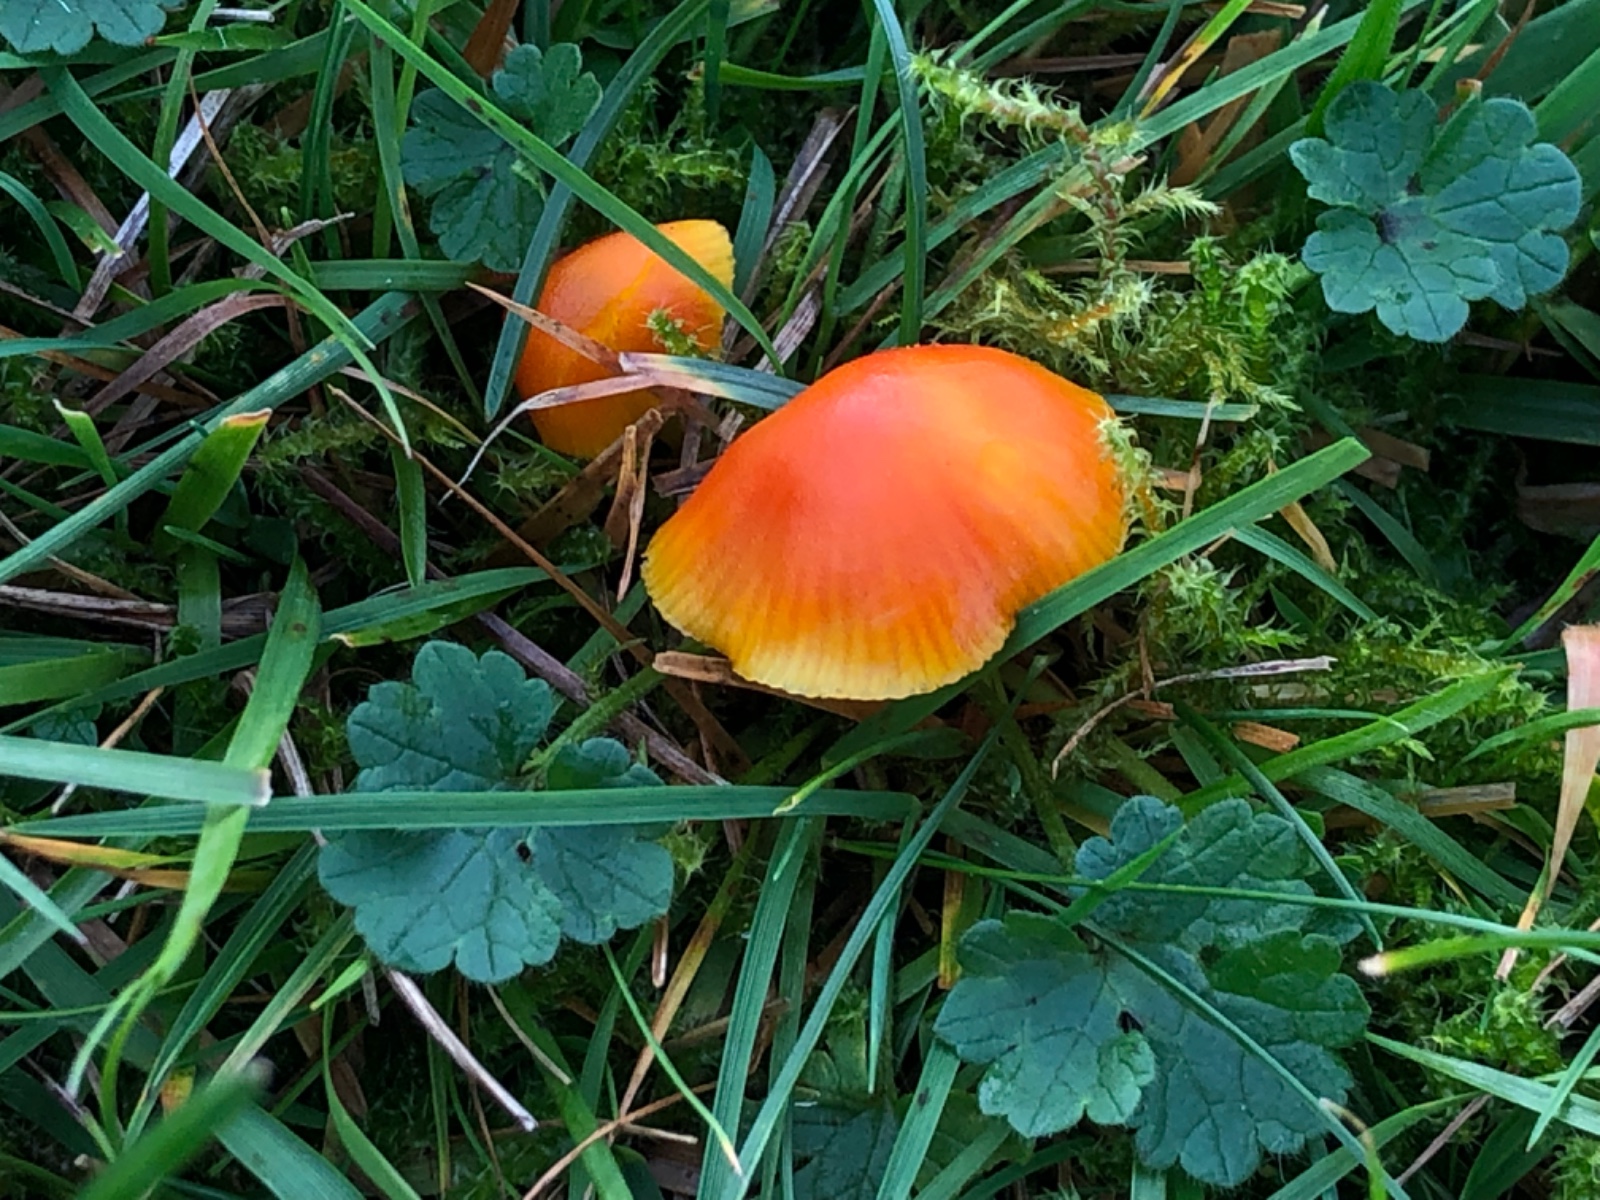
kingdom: Fungi
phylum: Basidiomycota
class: Agaricomycetes
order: Agaricales
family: Hygrophoraceae
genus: Hygrocybe
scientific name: Hygrocybe ceracea
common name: voksgul vokshat
